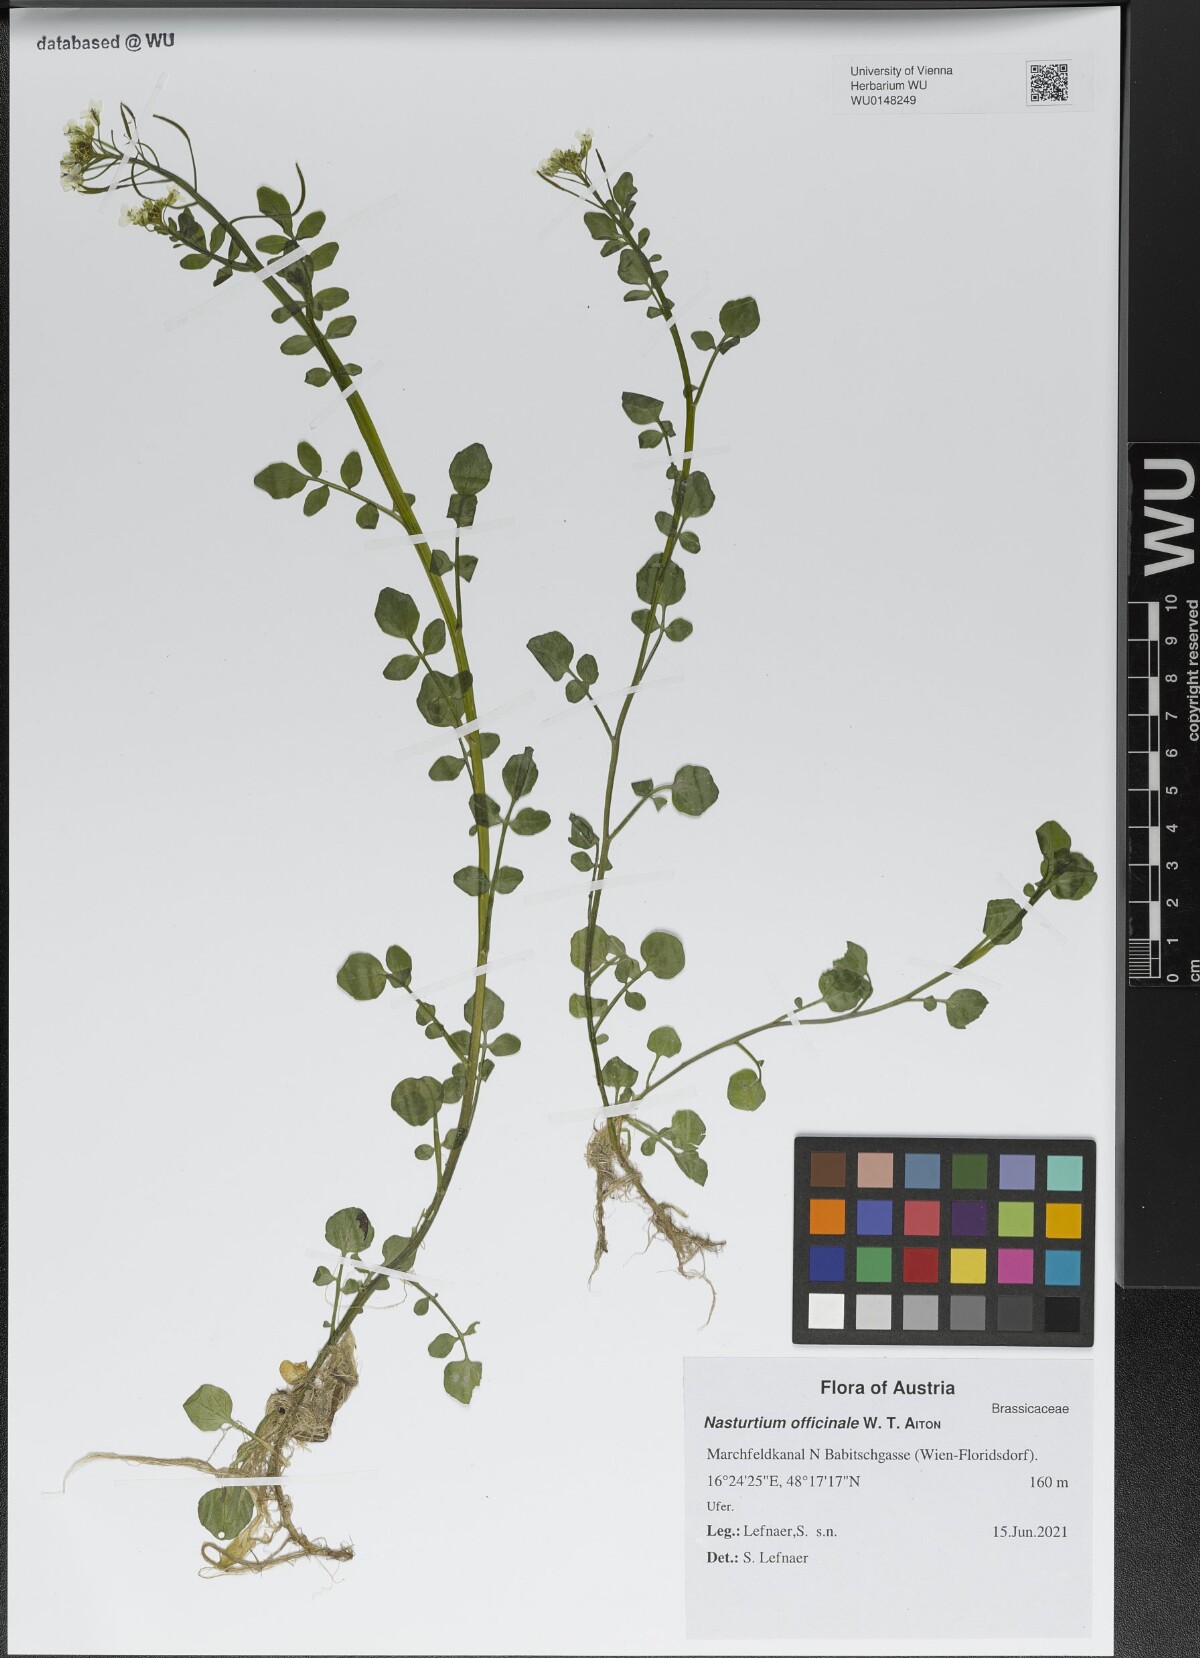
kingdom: Plantae
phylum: Tracheophyta
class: Magnoliopsida
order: Brassicales
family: Brassicaceae
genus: Nasturtium
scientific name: Nasturtium officinale
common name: Watercress
